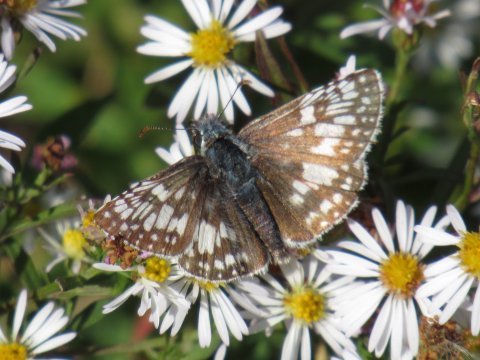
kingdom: Animalia
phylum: Arthropoda
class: Insecta
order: Lepidoptera
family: Hesperiidae
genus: Pyrgus
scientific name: Pyrgus communis
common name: Common Checkered-Skipper
